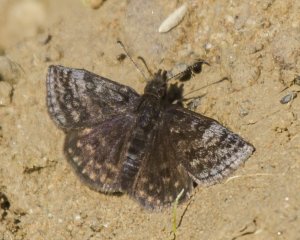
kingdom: Animalia
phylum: Arthropoda
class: Insecta
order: Lepidoptera
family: Hesperiidae
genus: Erynnis
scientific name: Erynnis icelus
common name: Dreamy Duskywing
